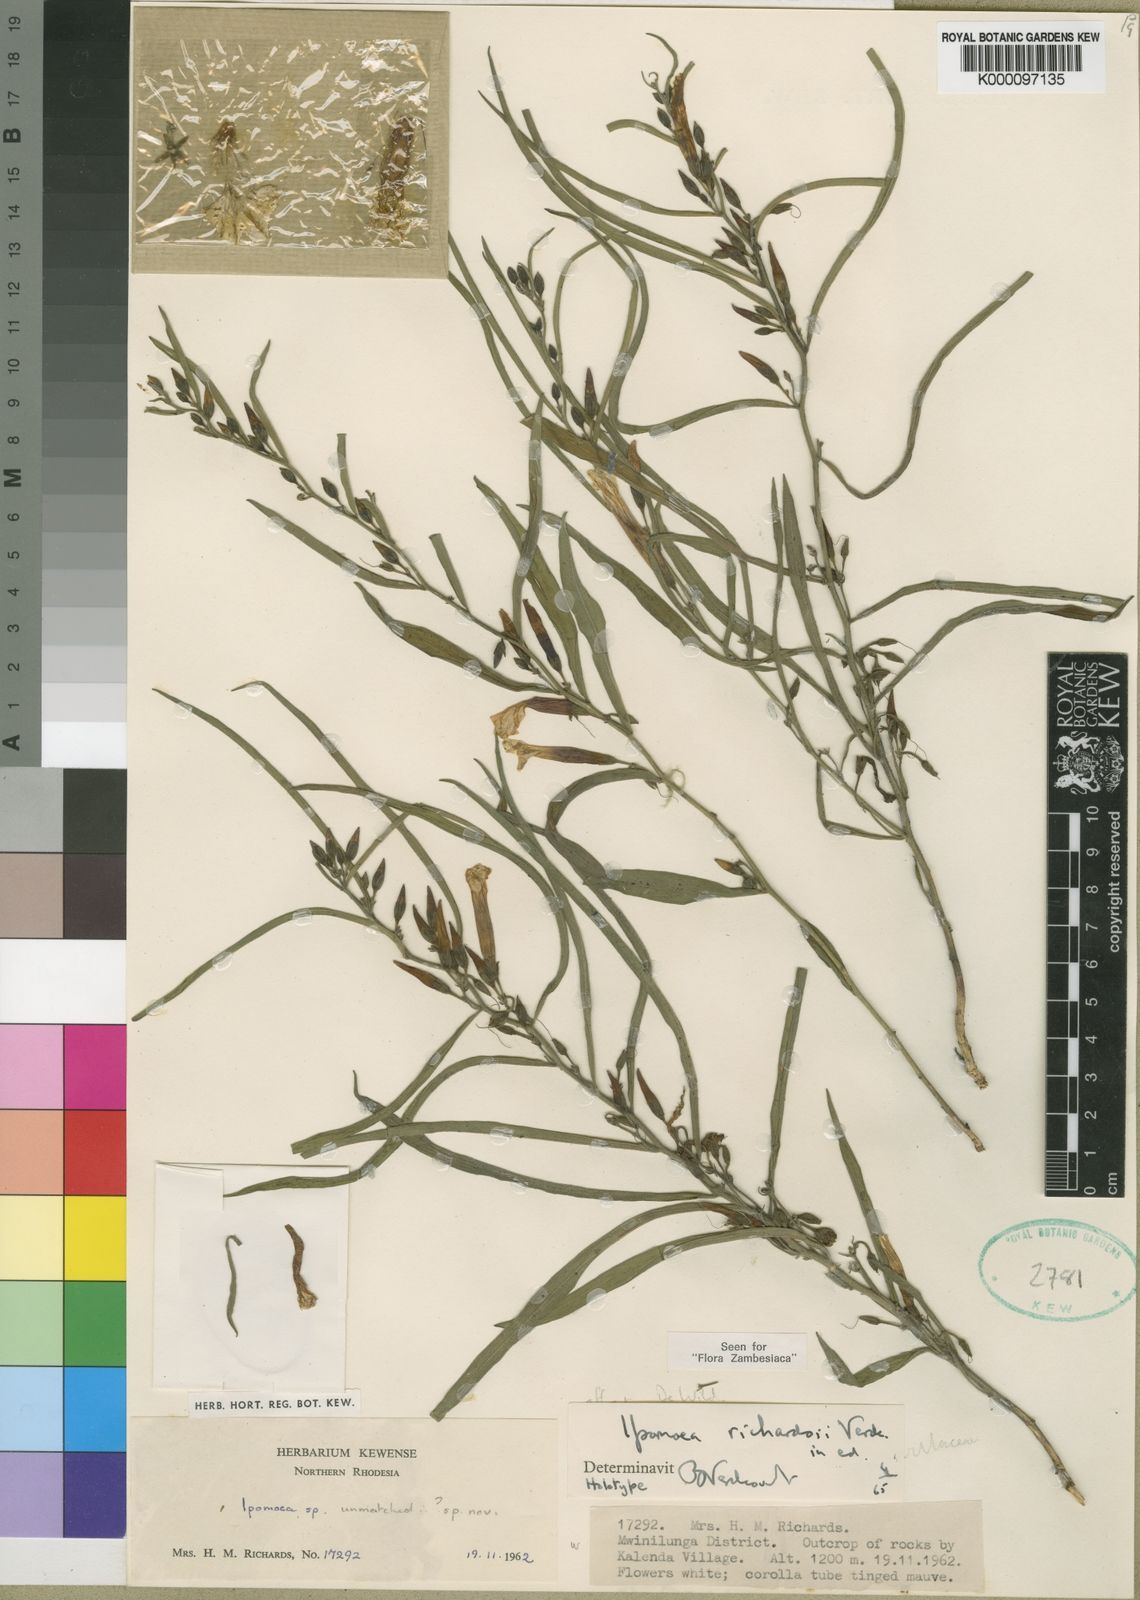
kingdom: Plantae
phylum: Tracheophyta
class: Magnoliopsida
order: Solanales
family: Convolvulaceae
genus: Ipomoea
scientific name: Ipomoea richardsiae
